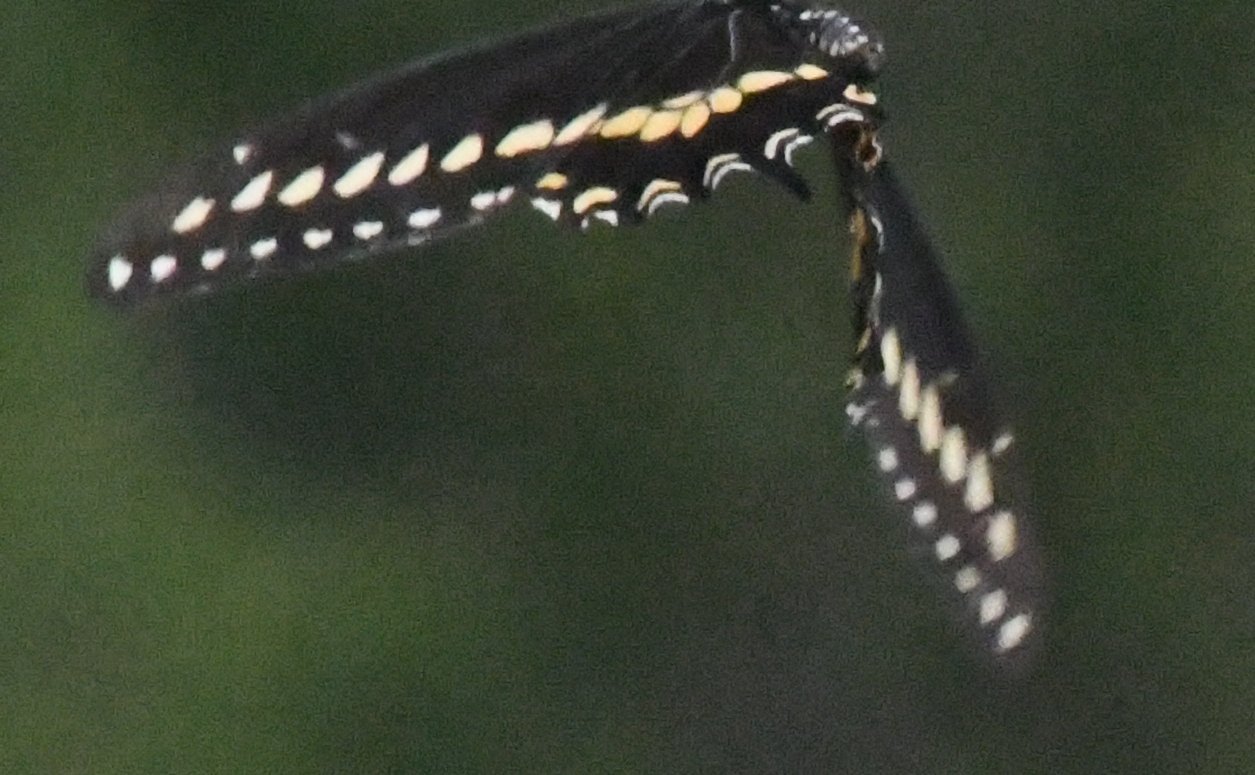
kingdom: Animalia
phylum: Arthropoda
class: Insecta
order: Lepidoptera
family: Papilionidae
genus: Papilio
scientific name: Papilio polyxenes
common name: Black Swallowtail
